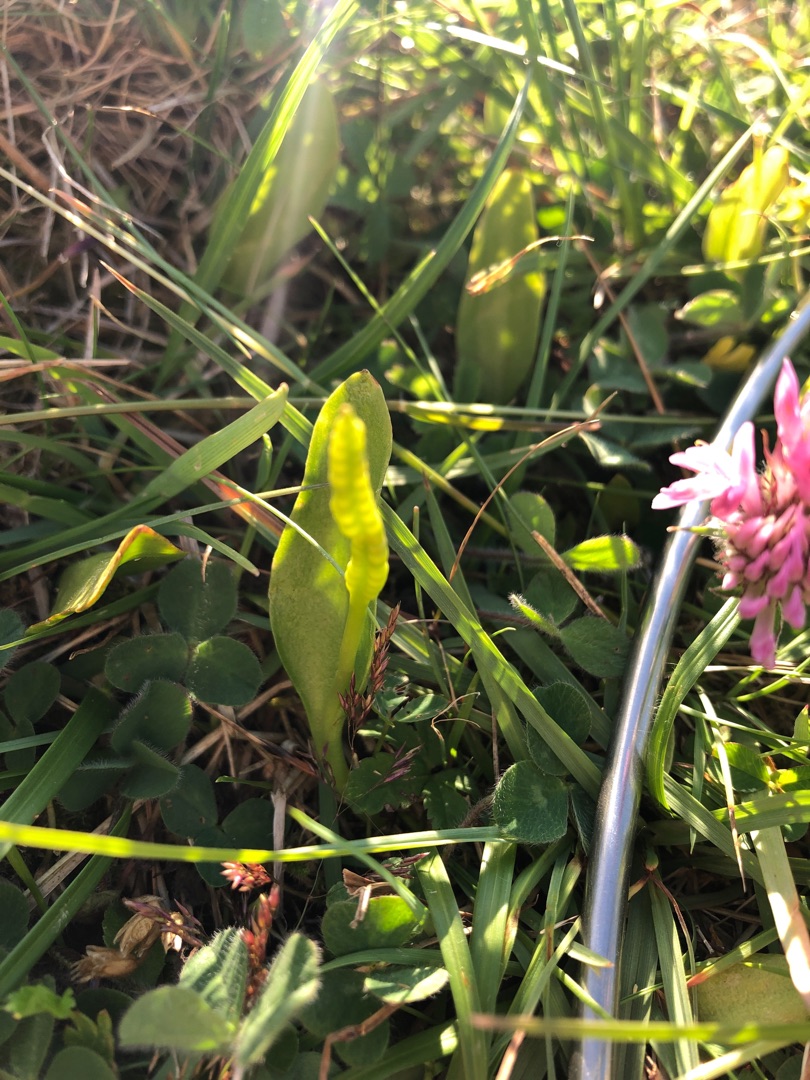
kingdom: Plantae
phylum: Tracheophyta
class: Polypodiopsida
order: Ophioglossales
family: Ophioglossaceae
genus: Ophioglossum
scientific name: Ophioglossum vulgatum
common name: Slangetunge
